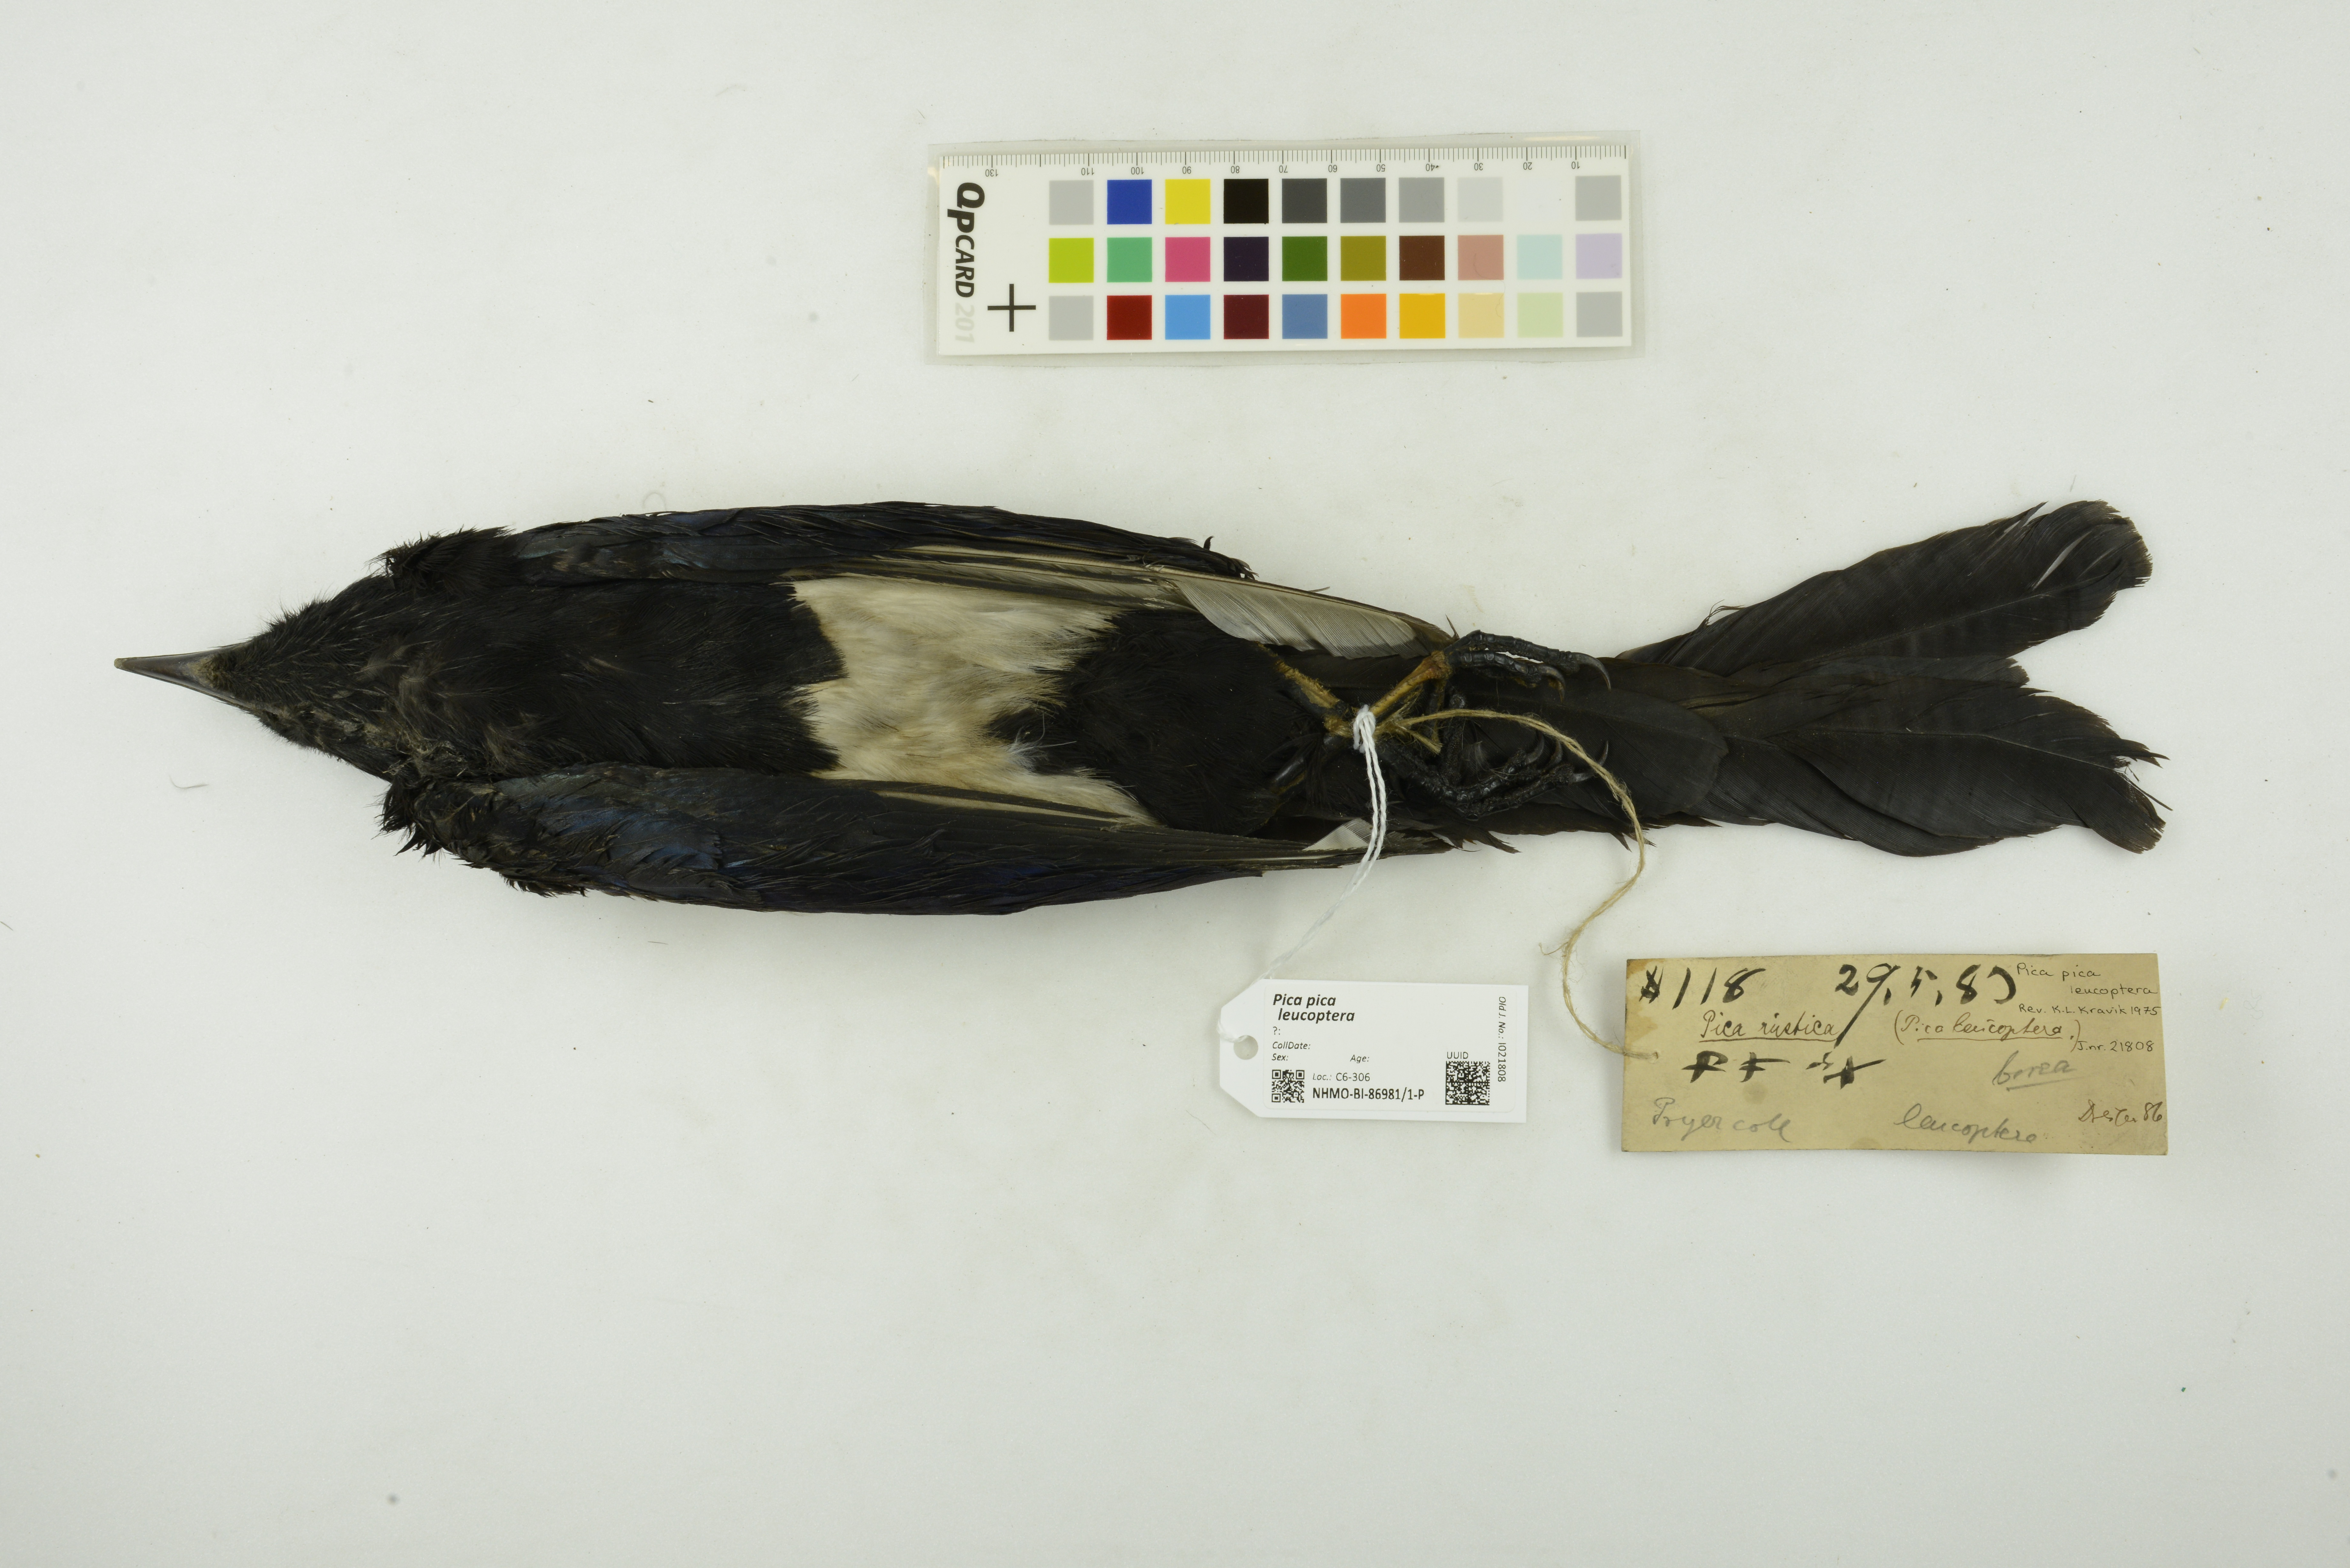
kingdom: Animalia
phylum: Chordata
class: Aves
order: Passeriformes
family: Corvidae
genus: Pica
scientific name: Pica pica
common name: Eurasian magpie
